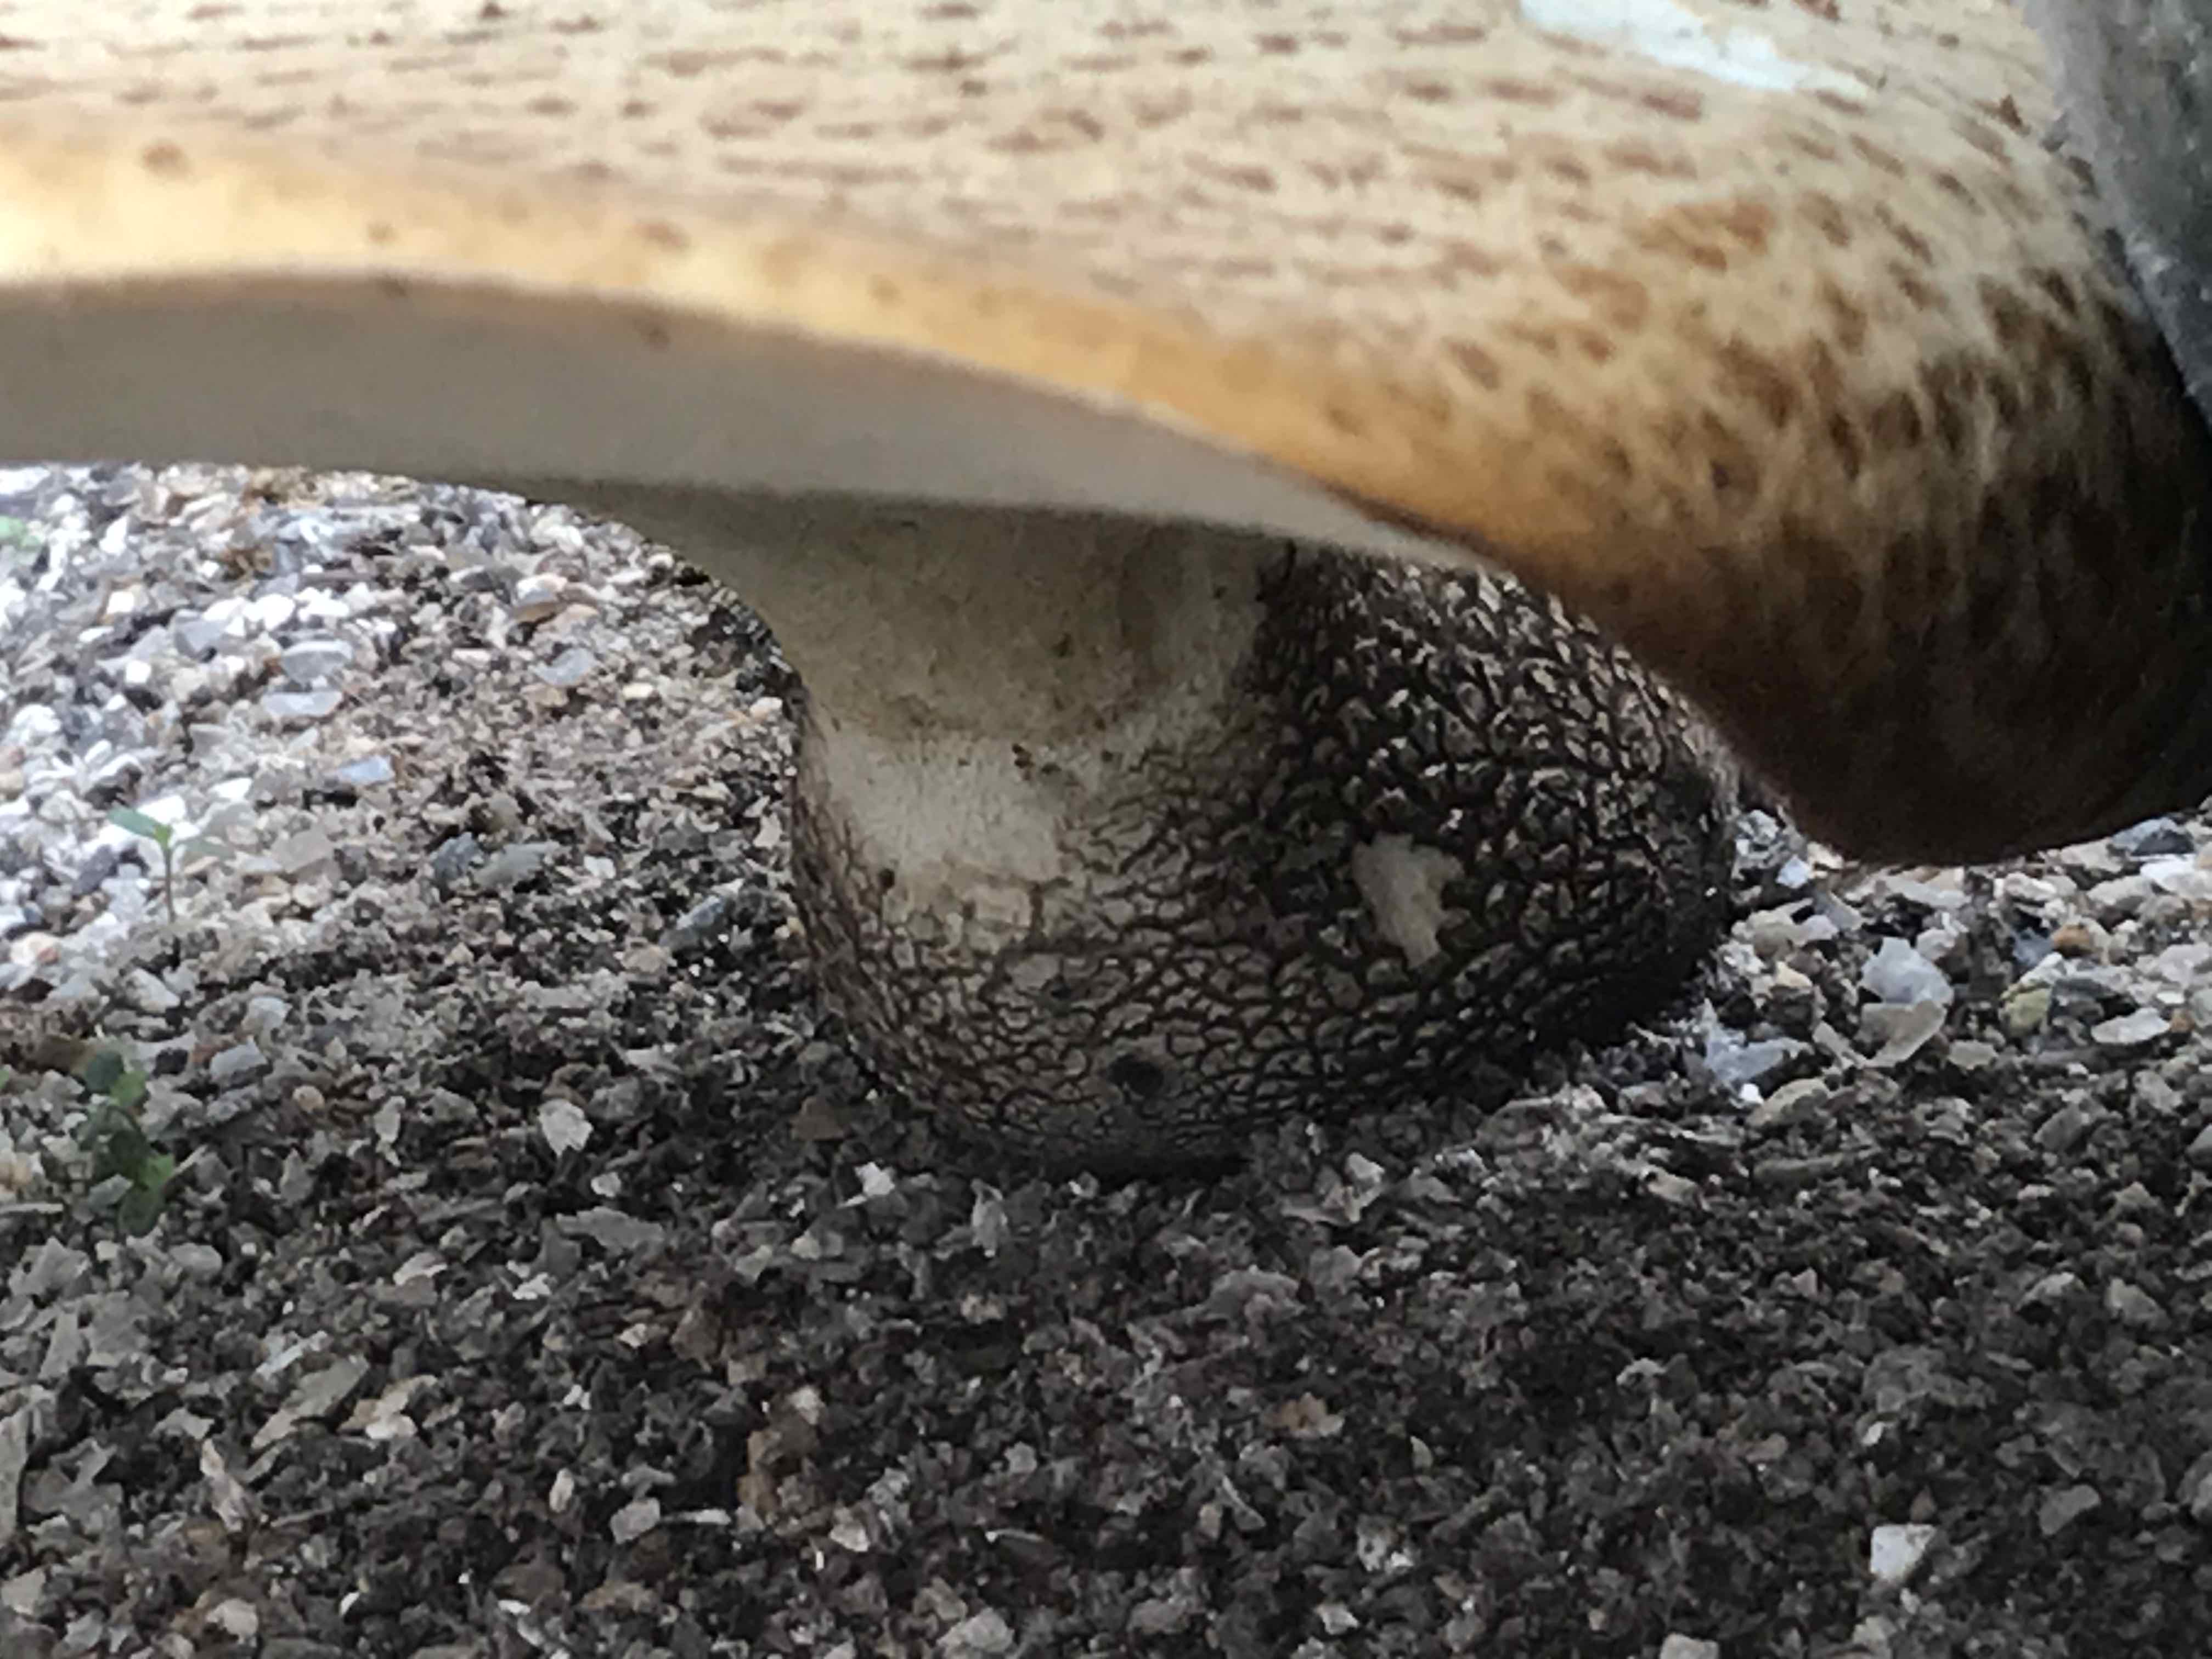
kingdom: Fungi
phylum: Basidiomycota
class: Agaricomycetes
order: Polyporales
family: Polyporaceae
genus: Cerioporus
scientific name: Cerioporus squamosus
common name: skællet stilkporesvamp
